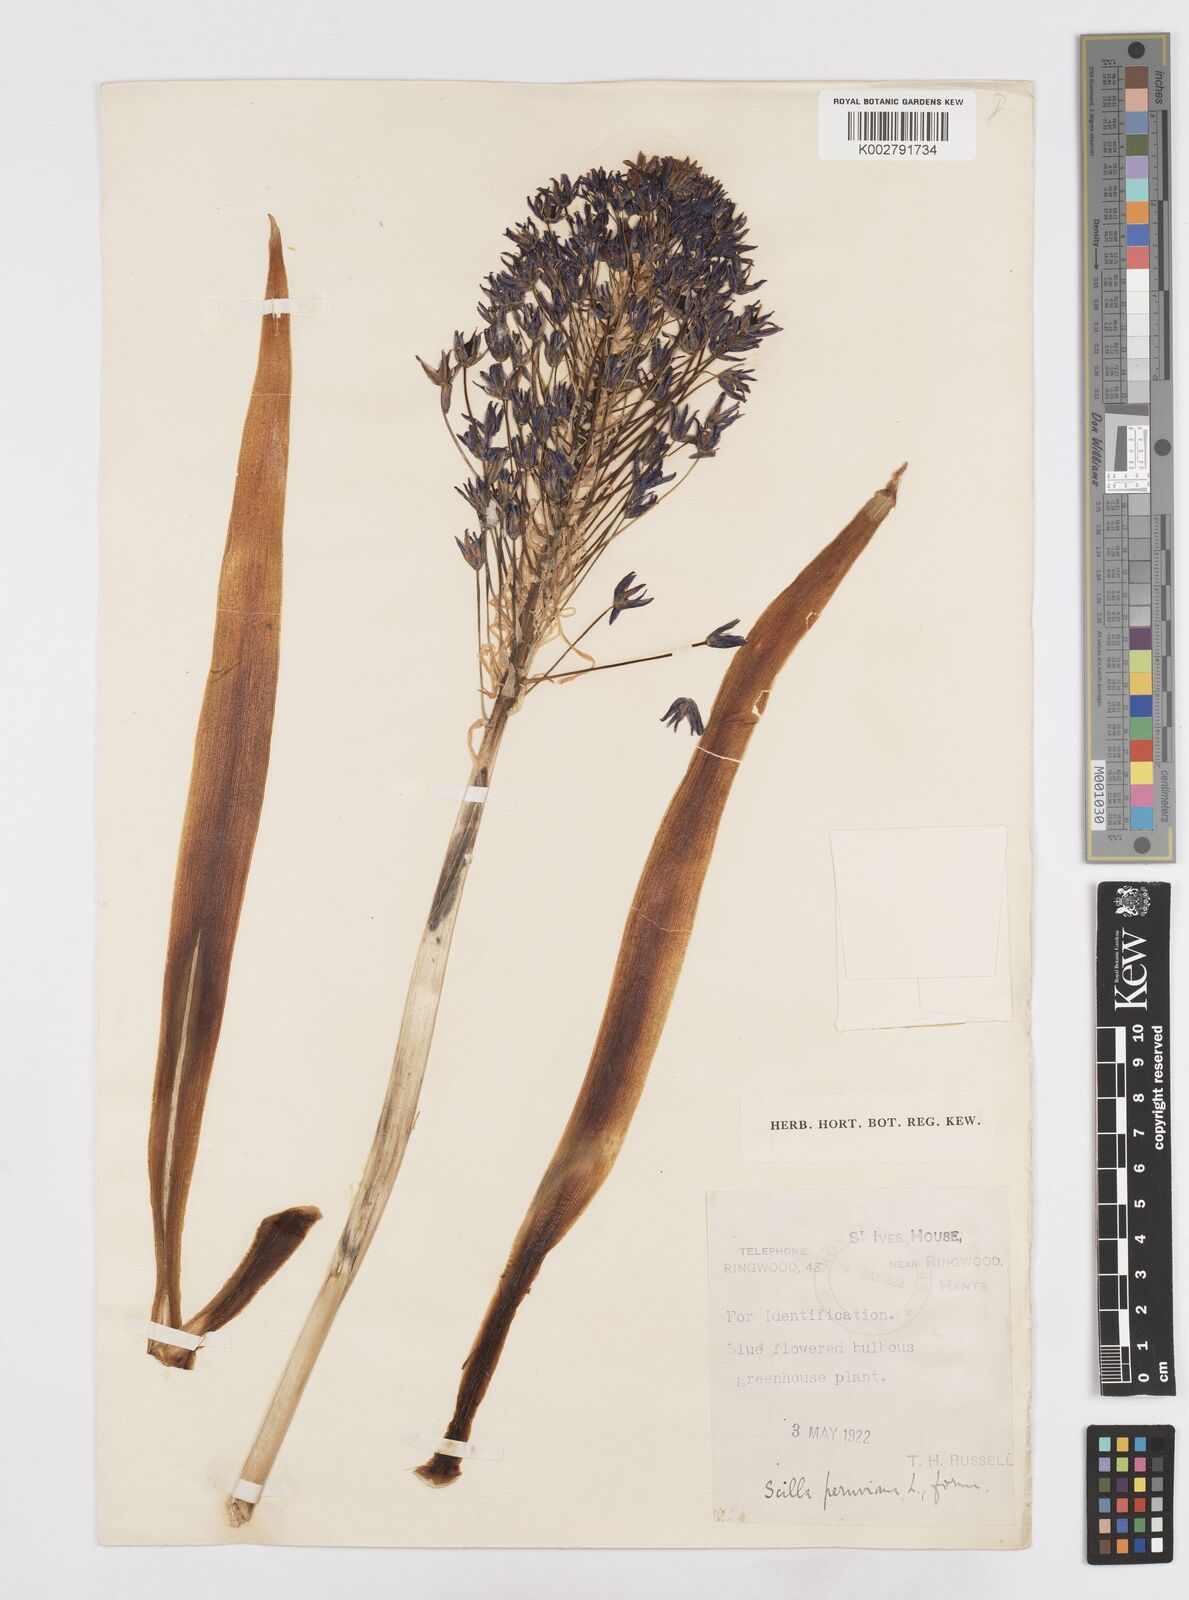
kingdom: Plantae
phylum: Tracheophyta
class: Liliopsida
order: Asparagales
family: Asparagaceae
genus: Scilla
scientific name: Scilla peruviana
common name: Portuguese squill
